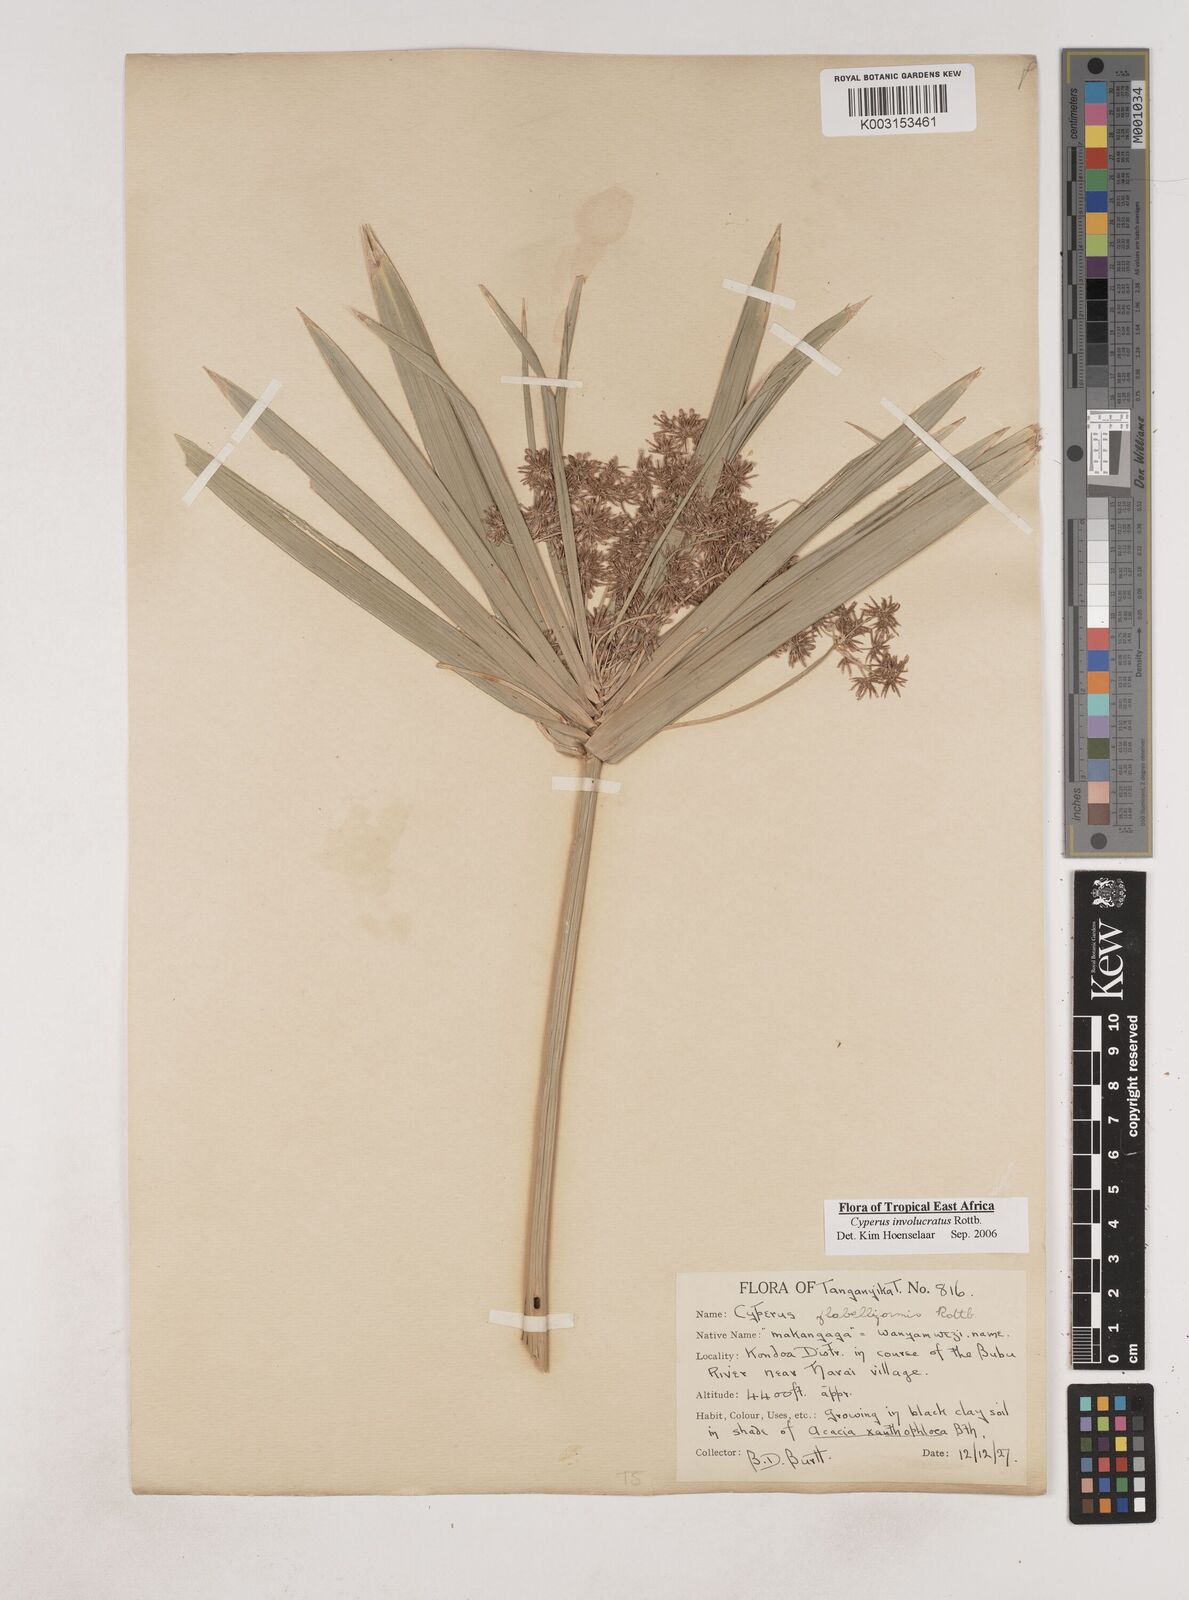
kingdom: Plantae
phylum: Tracheophyta
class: Liliopsida
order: Poales
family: Cyperaceae
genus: Cyperus
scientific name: Cyperus alternifolius
